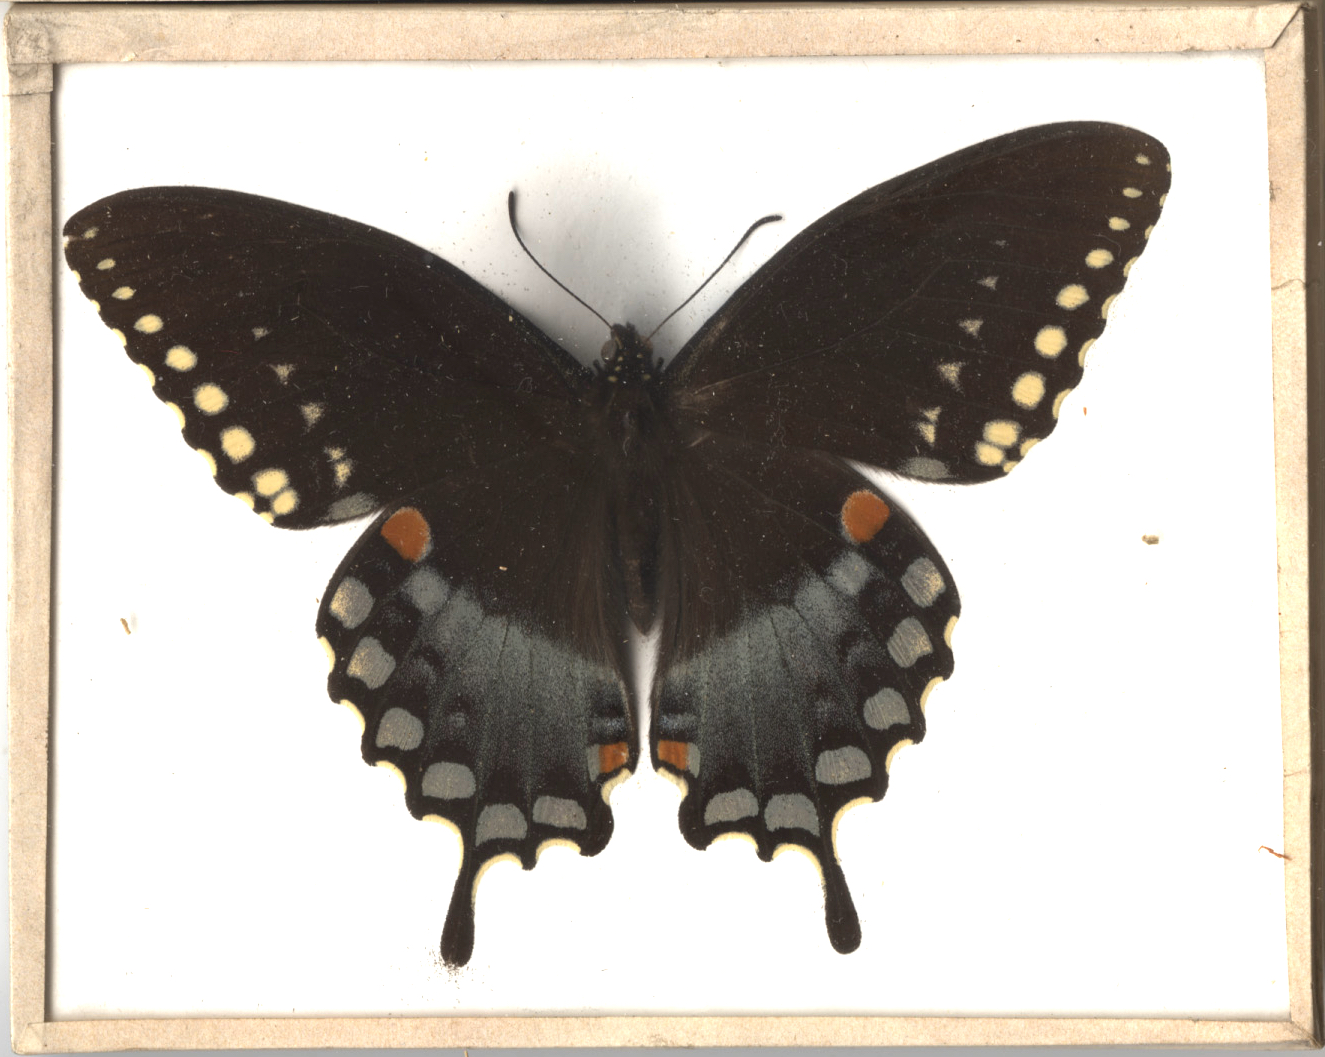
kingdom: Animalia
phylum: Arthropoda
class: Insecta
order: Lepidoptera
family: Papilionidae
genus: Papilio
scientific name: Papilio troilus
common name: Spicebush Swallowtail
